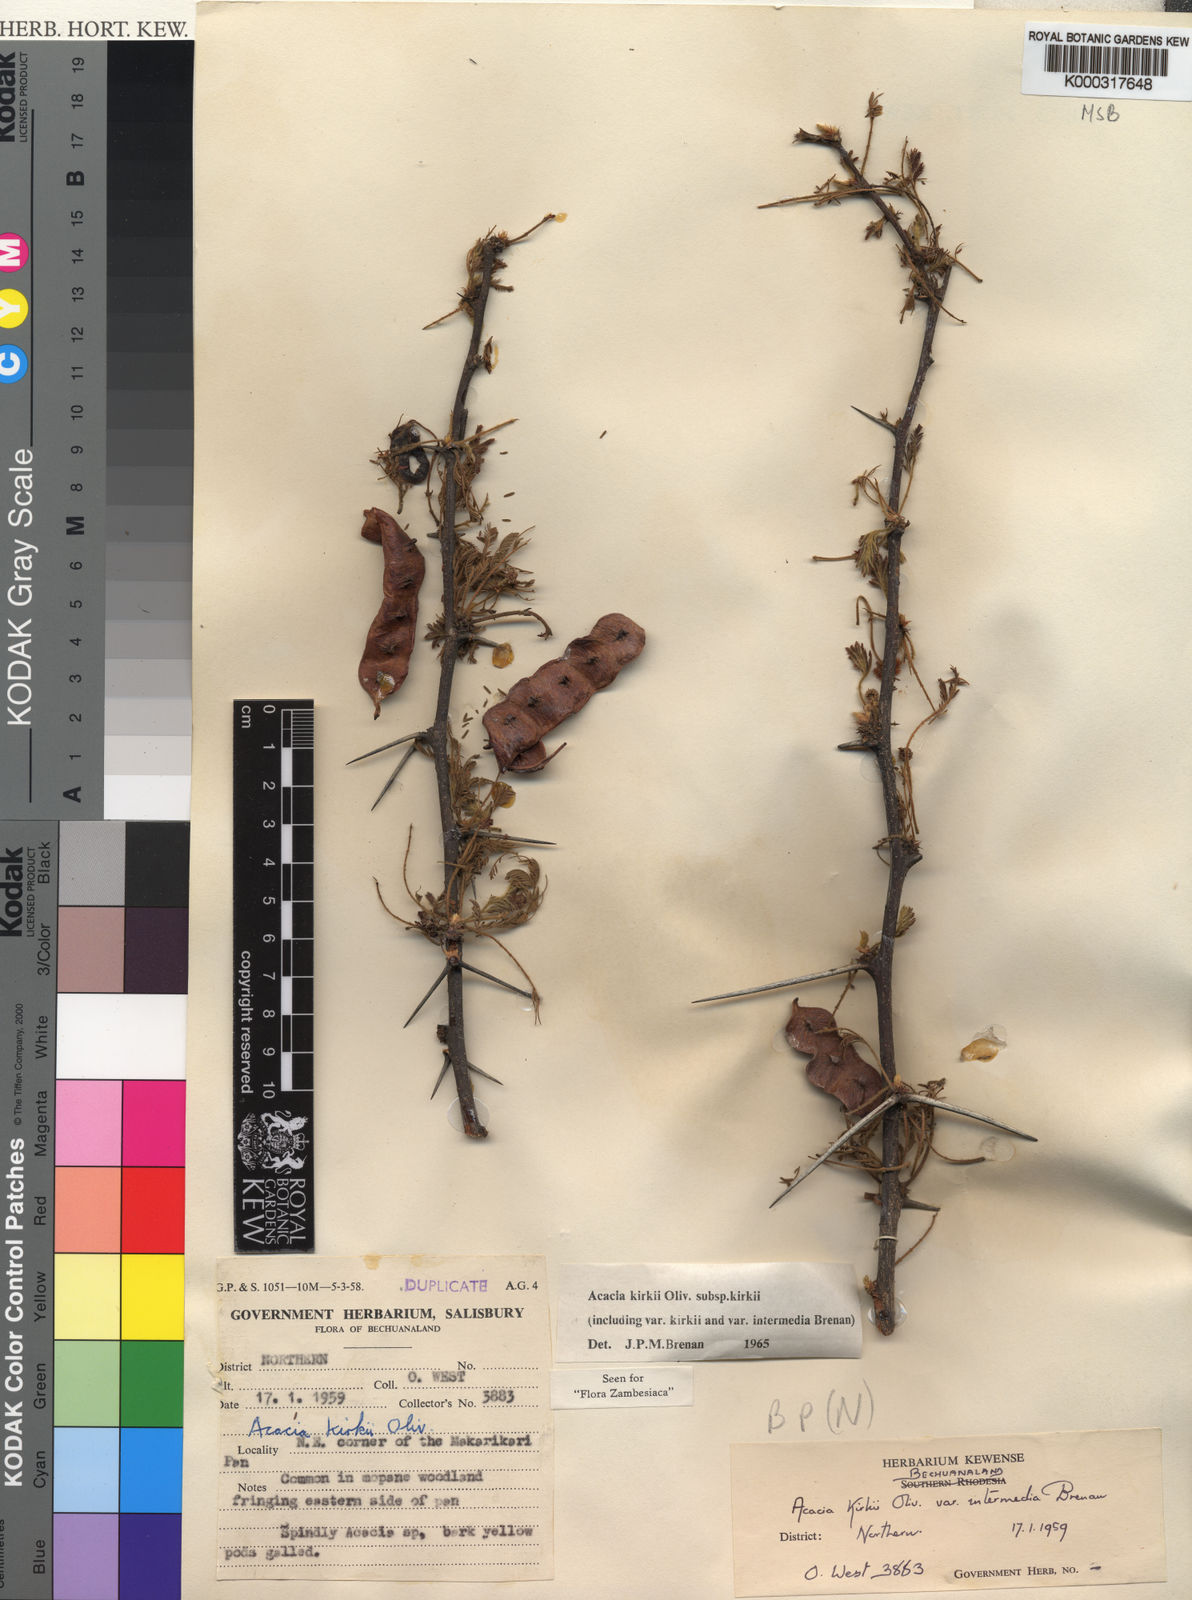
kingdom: Plantae
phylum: Tracheophyta
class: Magnoliopsida
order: Fabales
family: Fabaceae
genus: Vachellia
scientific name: Vachellia kirkii
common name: Flood-plain acacia
